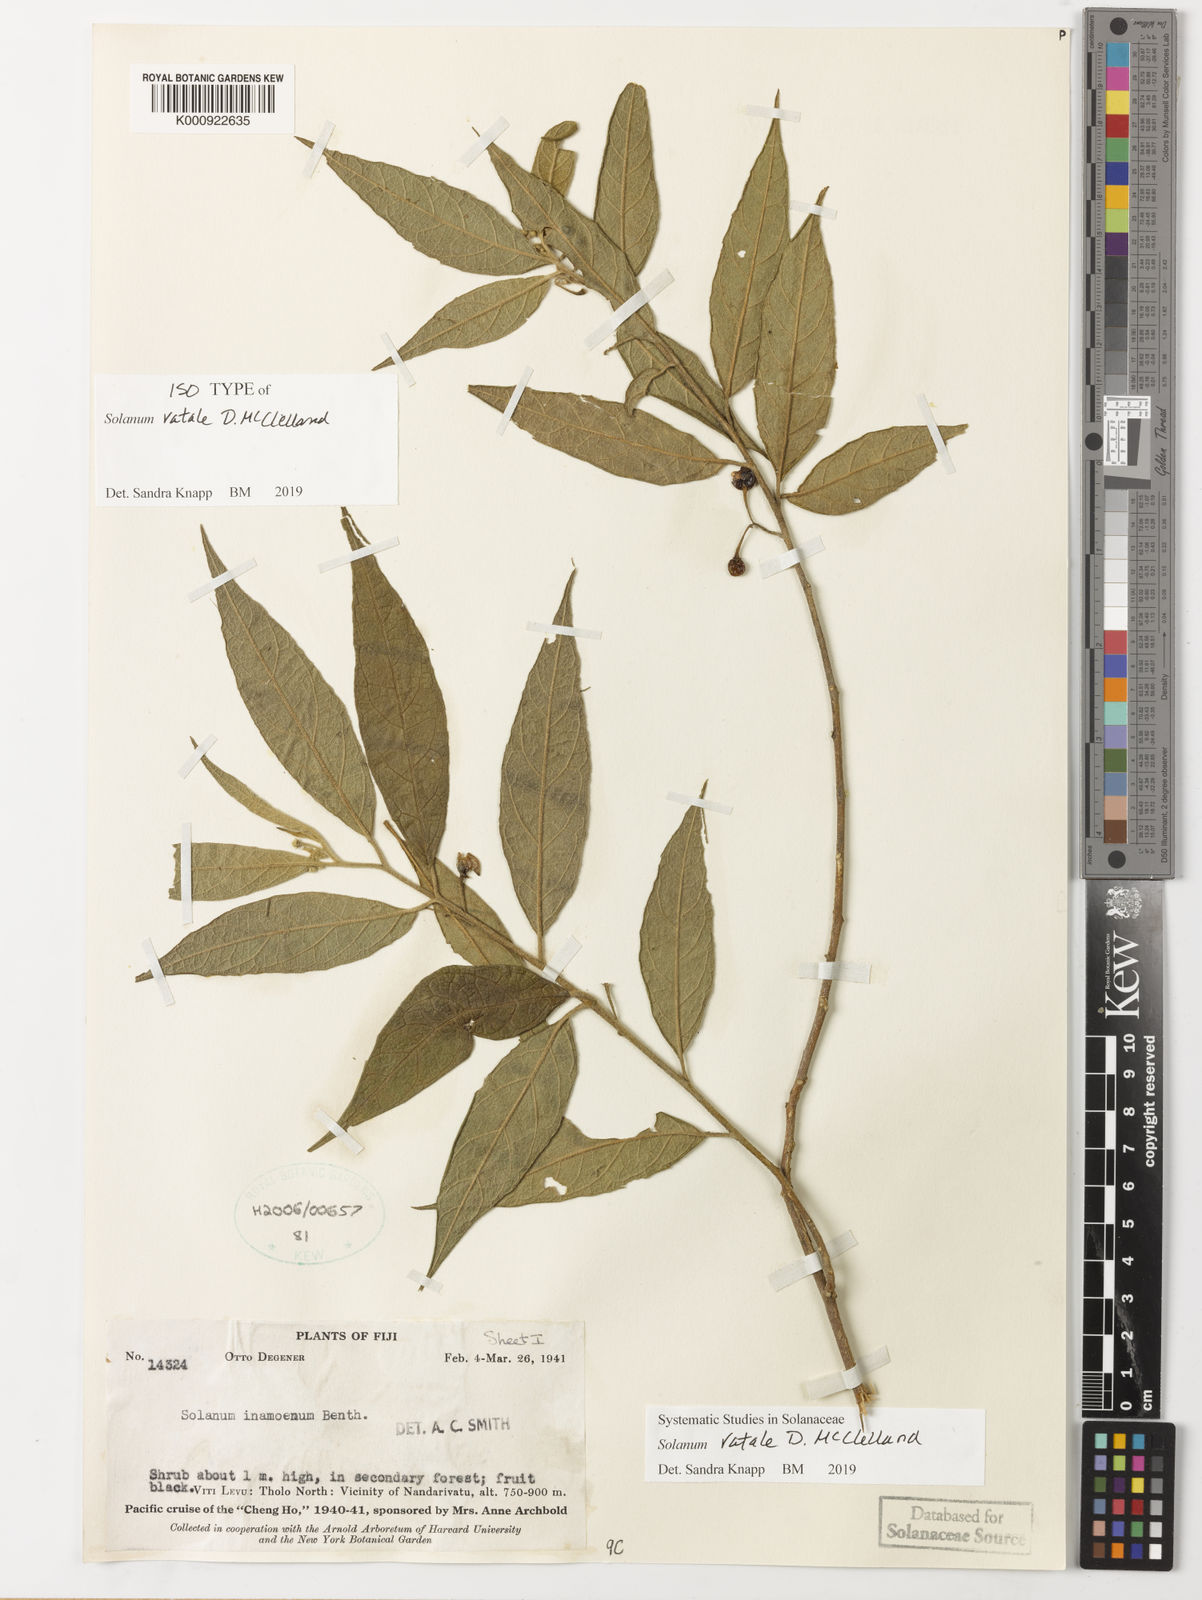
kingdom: Plantae
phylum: Tracheophyta
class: Magnoliopsida
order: Solanales
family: Solanaceae
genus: Solanum
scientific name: Solanum
